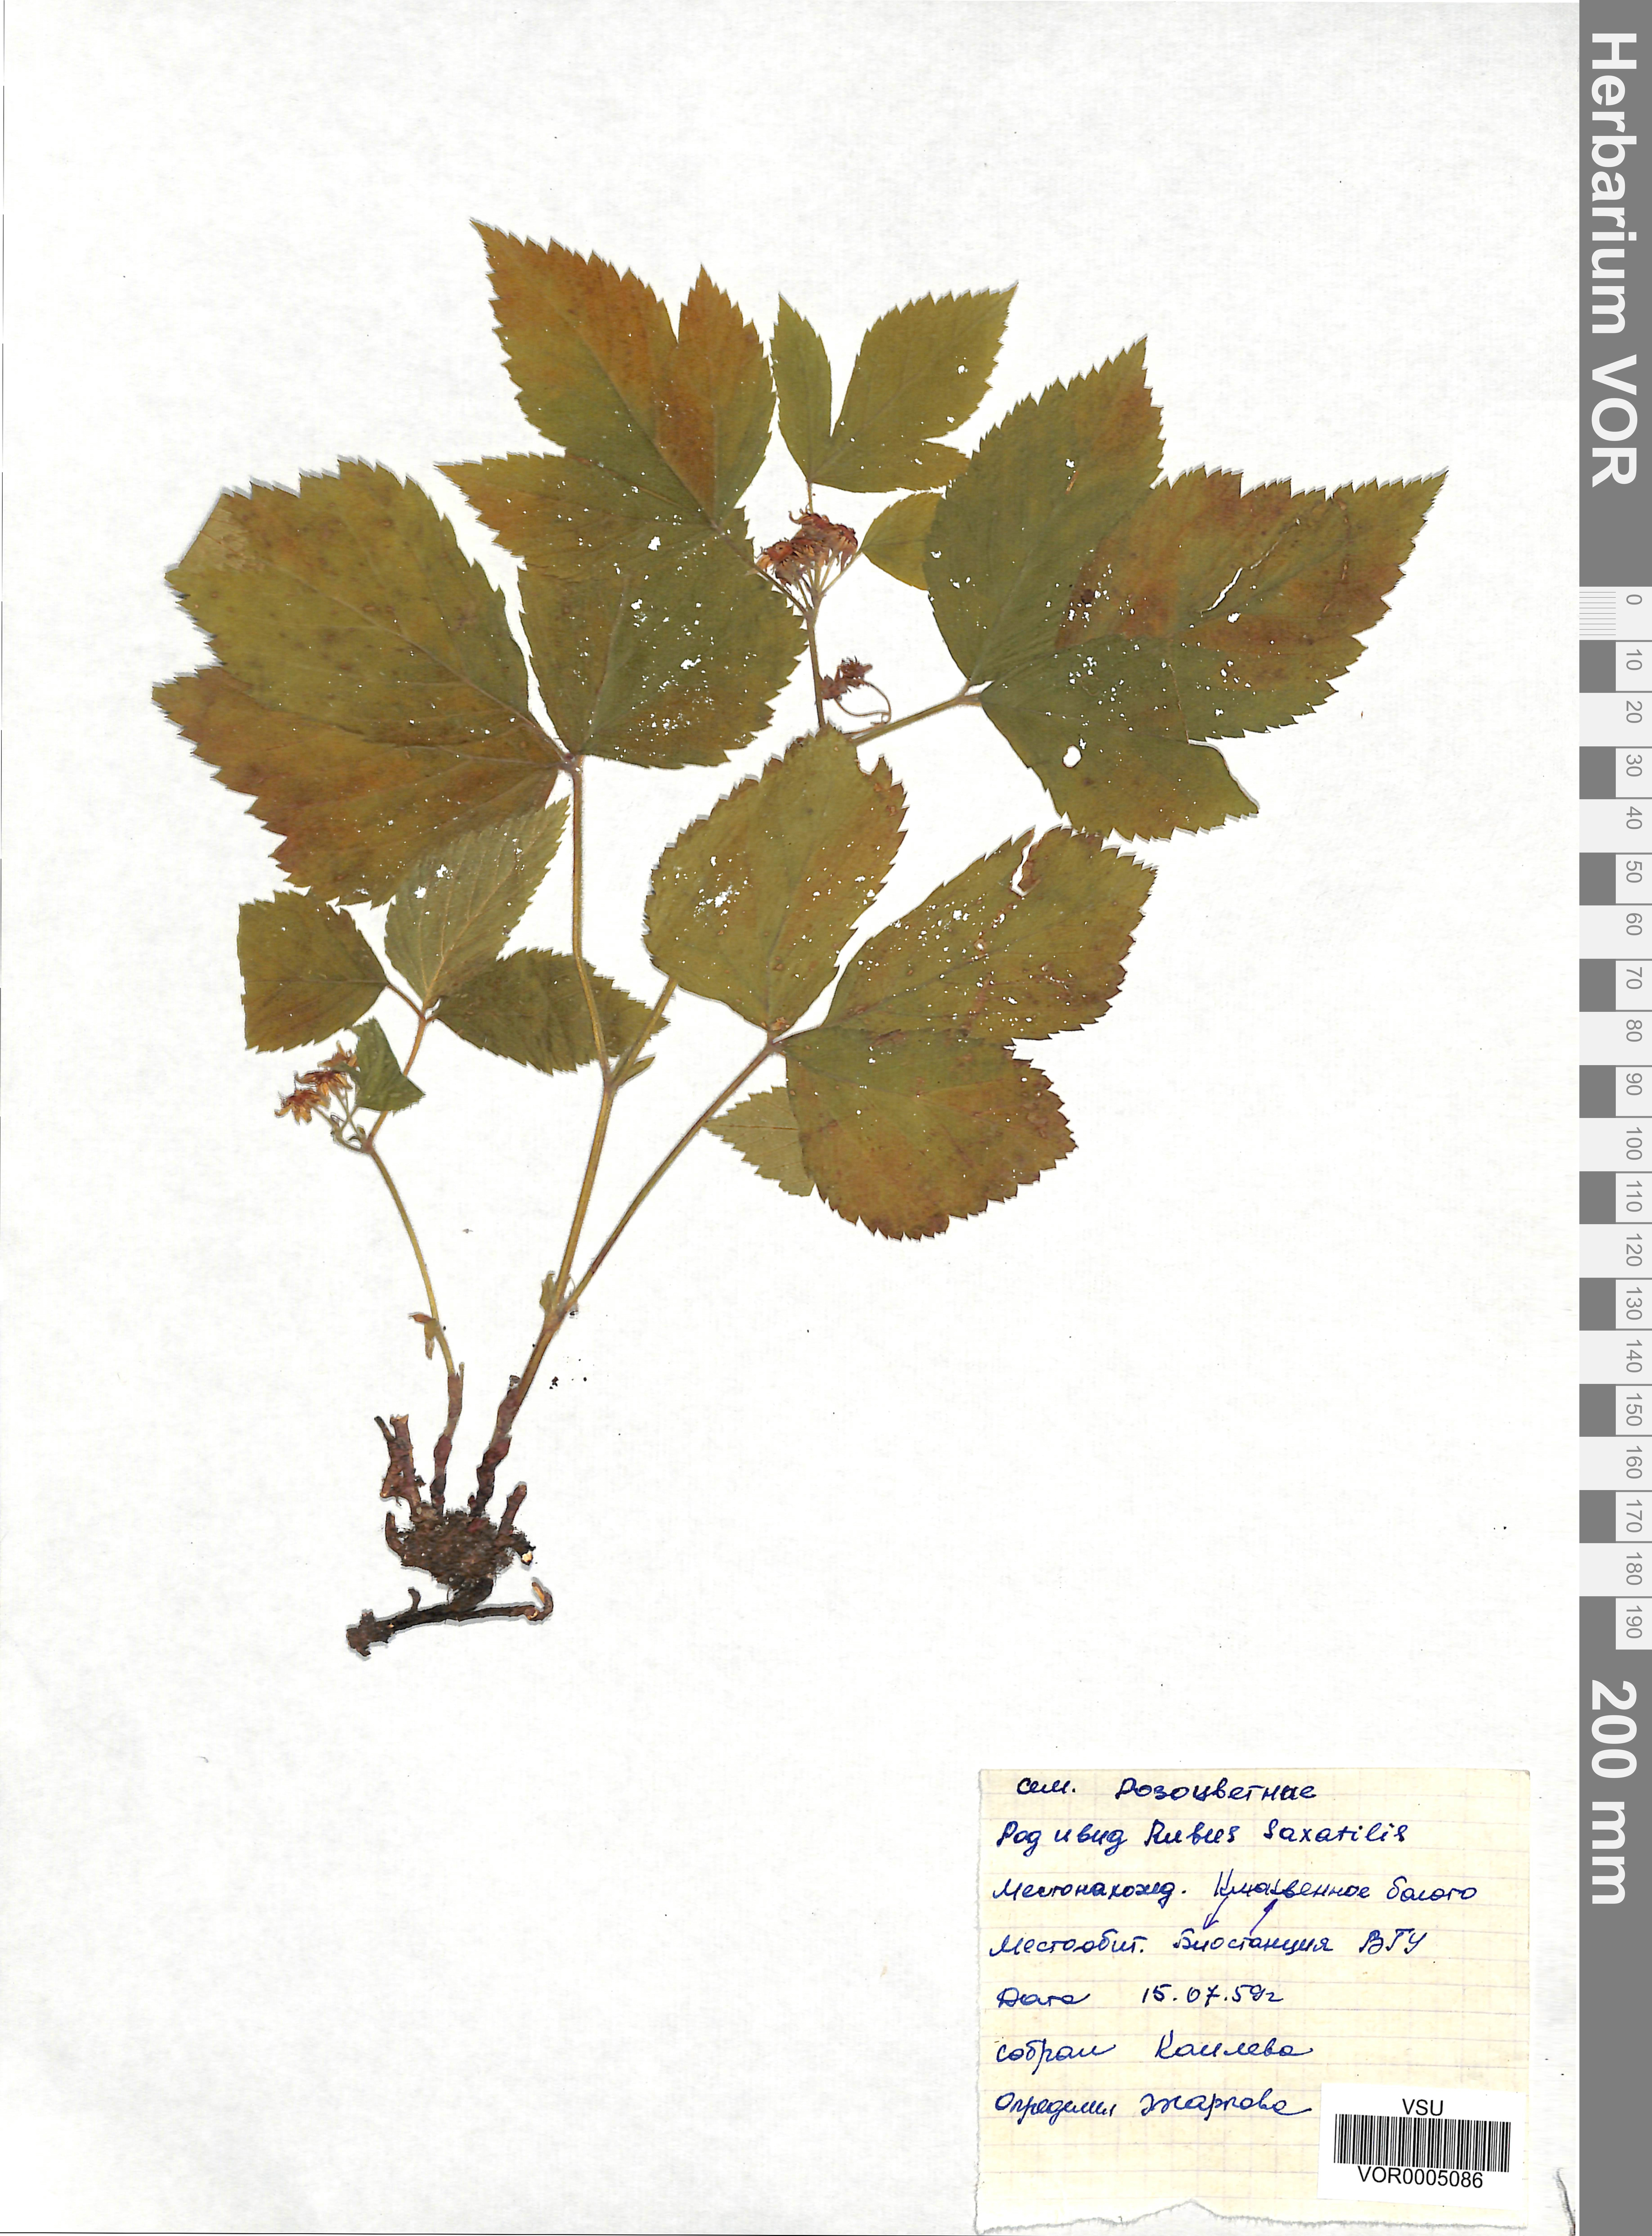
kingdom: Plantae
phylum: Tracheophyta
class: Magnoliopsida
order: Rosales
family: Rosaceae
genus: Rubus
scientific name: Rubus saxatilis
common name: Stone bramble
